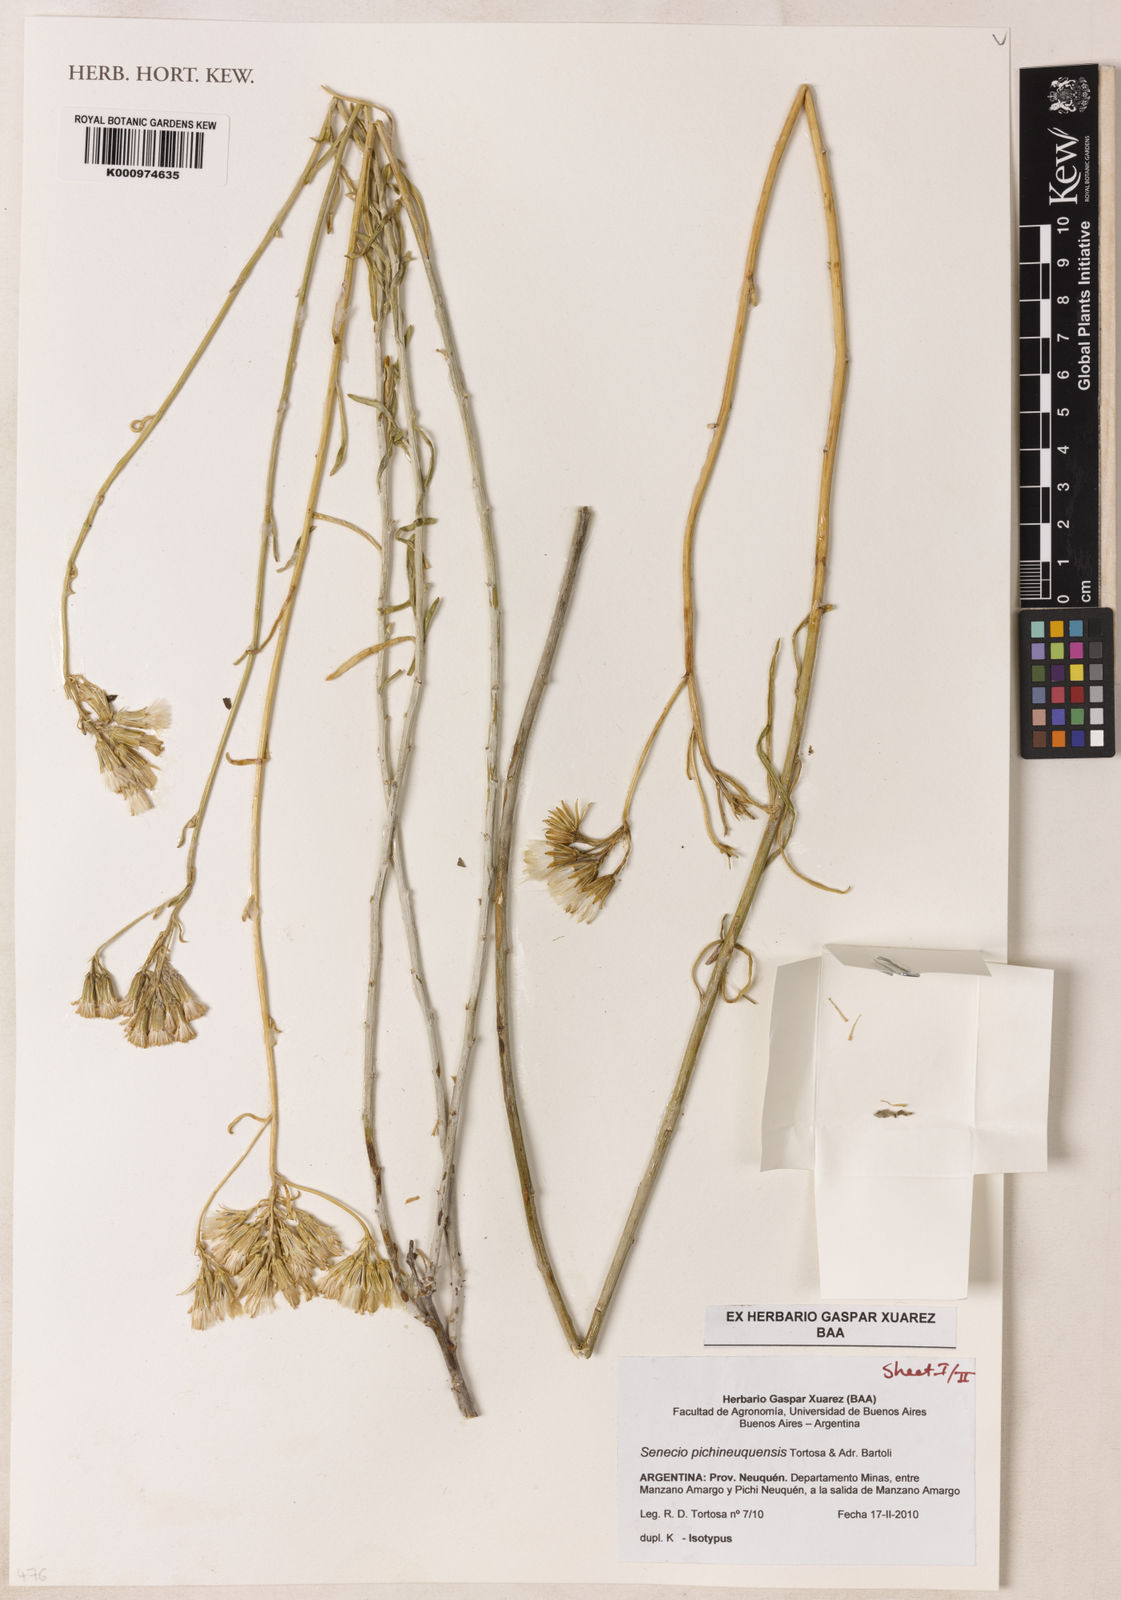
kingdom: Plantae
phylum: Tracheophyta
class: Magnoliopsida
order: Asterales
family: Asteraceae
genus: Senecio
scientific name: Senecio pichineuquensis
